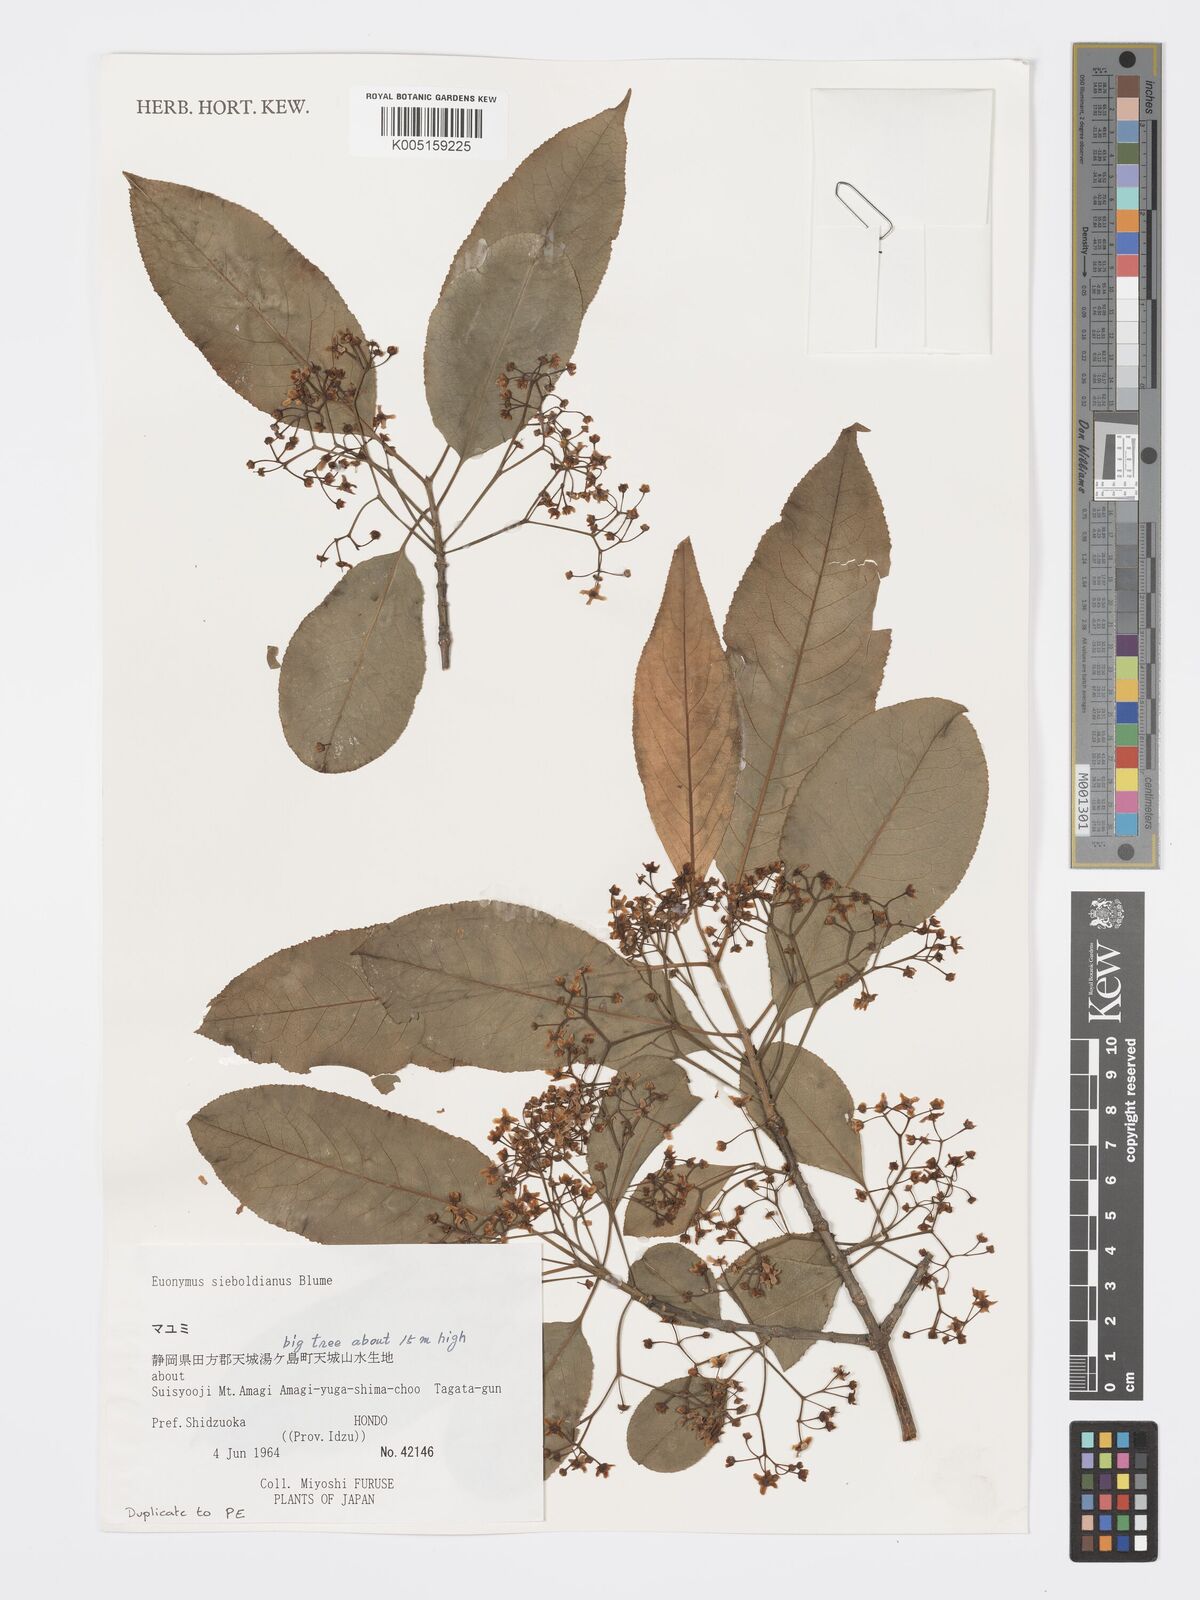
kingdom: Plantae
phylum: Tracheophyta
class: Magnoliopsida
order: Celastrales
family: Celastraceae
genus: Euonymus
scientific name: Euonymus hamiltonianus
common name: Hamilton's spindletree
